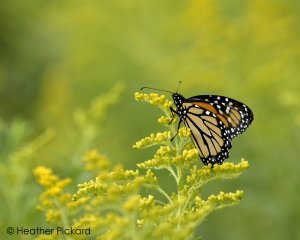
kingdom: Animalia
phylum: Arthropoda
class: Insecta
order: Lepidoptera
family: Nymphalidae
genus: Danaus
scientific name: Danaus plexippus
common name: Monarch
